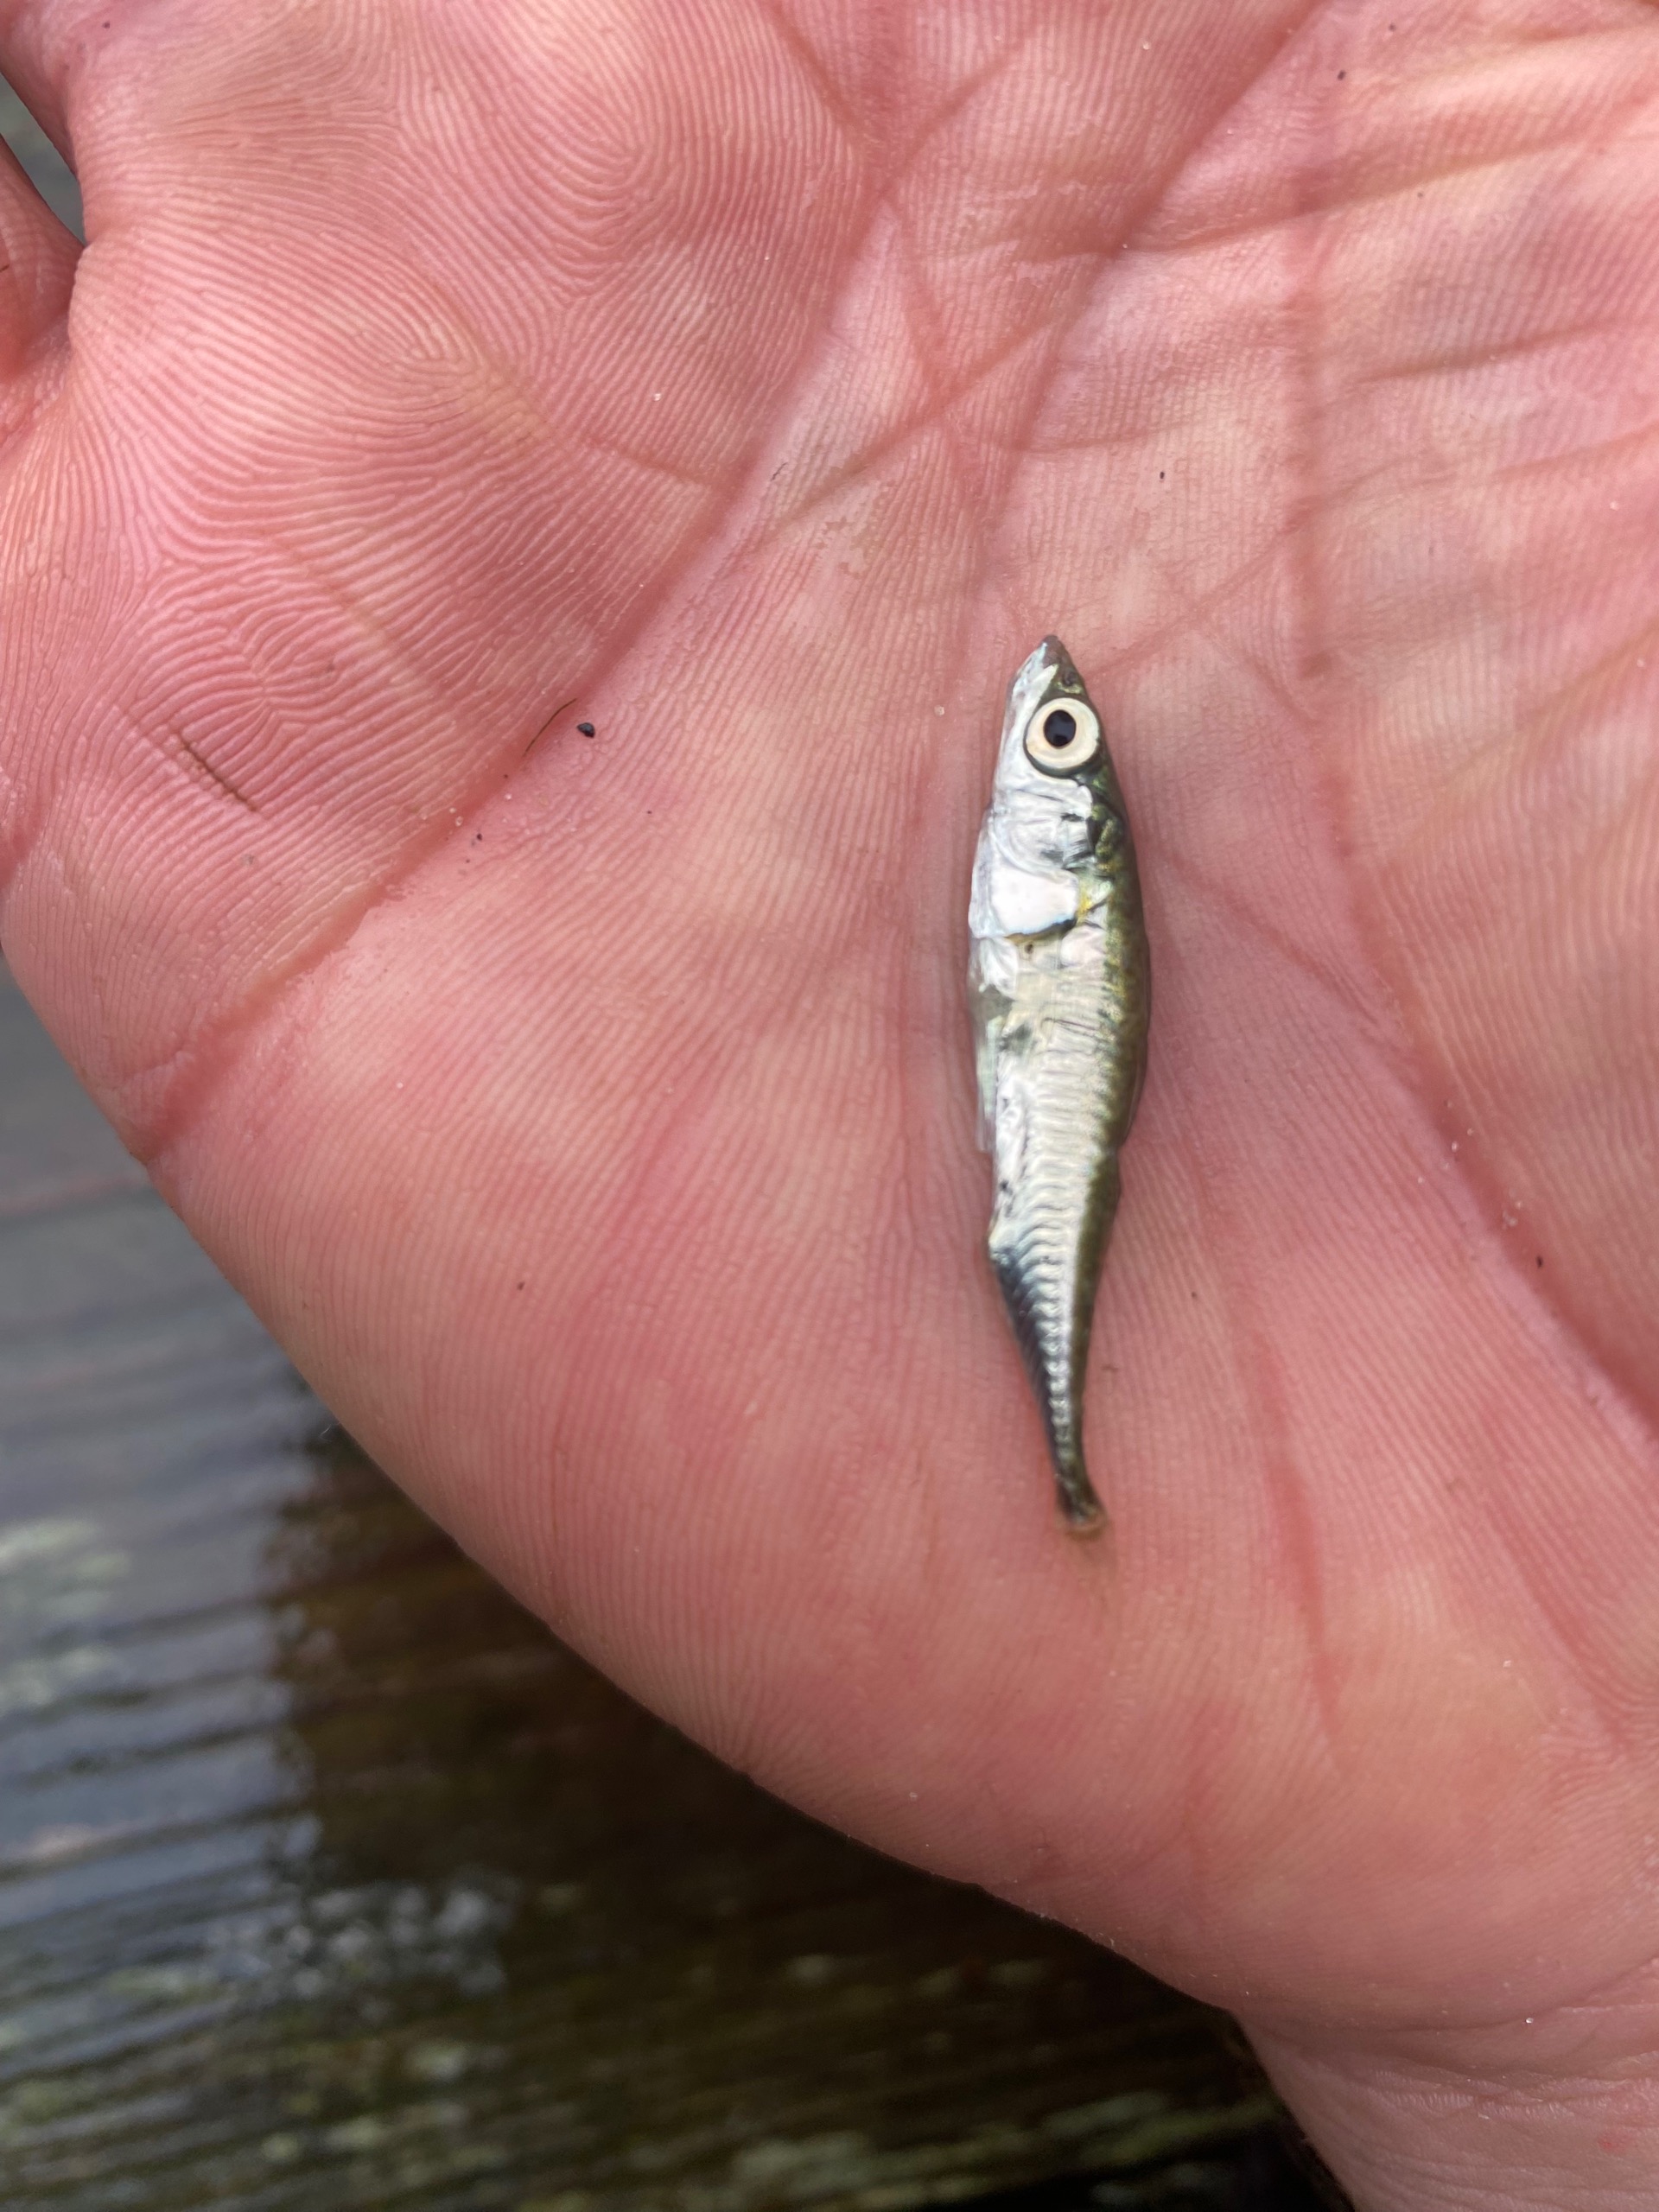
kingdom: Animalia
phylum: Chordata
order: Gasterosteiformes
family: Gasterosteidae
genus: Gasterosteus
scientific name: Gasterosteus aculeatus
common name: Trepigget hundestejle
